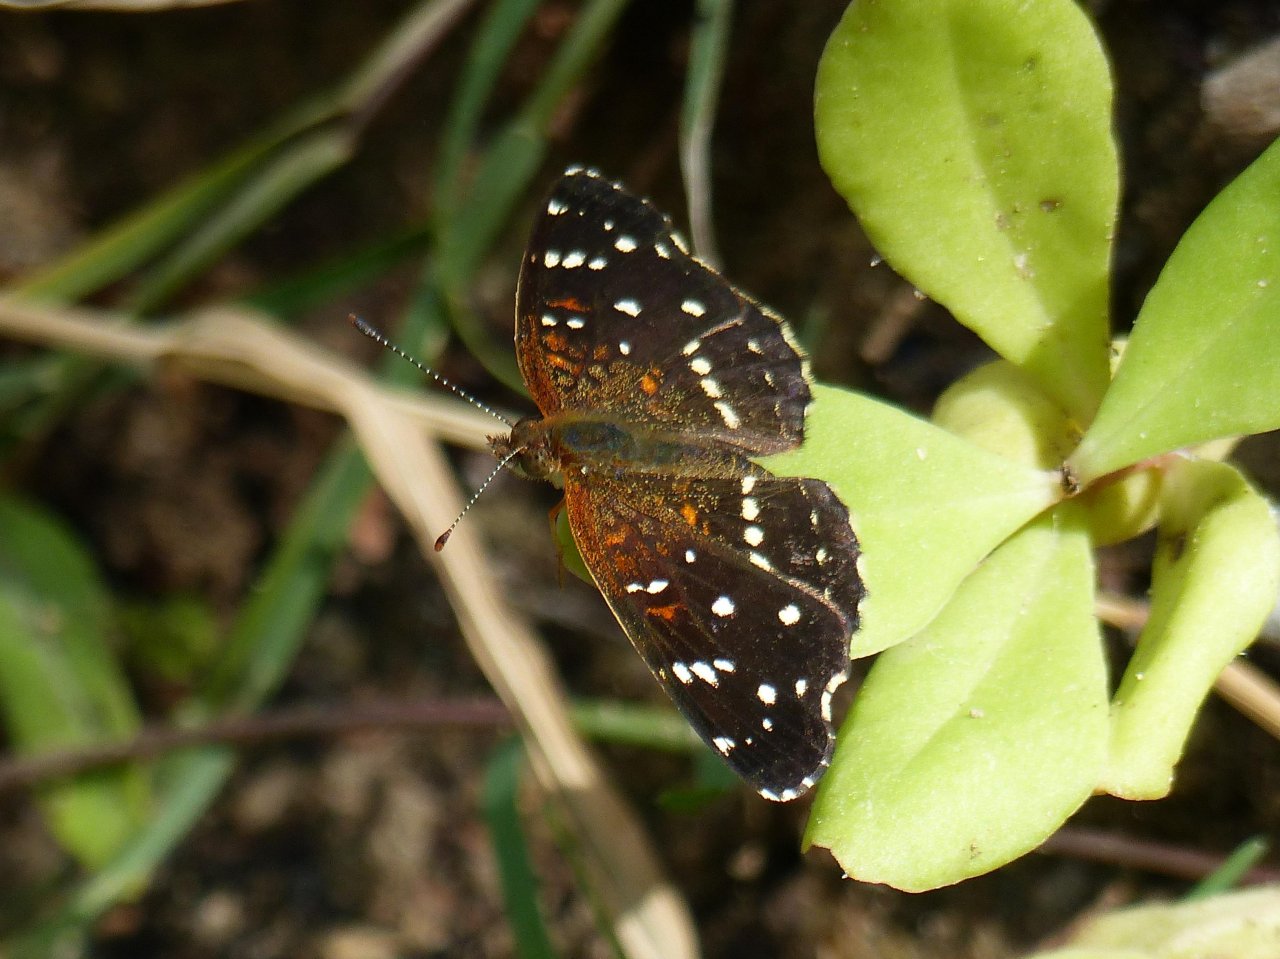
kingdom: Animalia
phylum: Arthropoda
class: Insecta
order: Lepidoptera
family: Nymphalidae
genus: Anthanassa
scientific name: Anthanassa texana
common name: Texan Crescent
